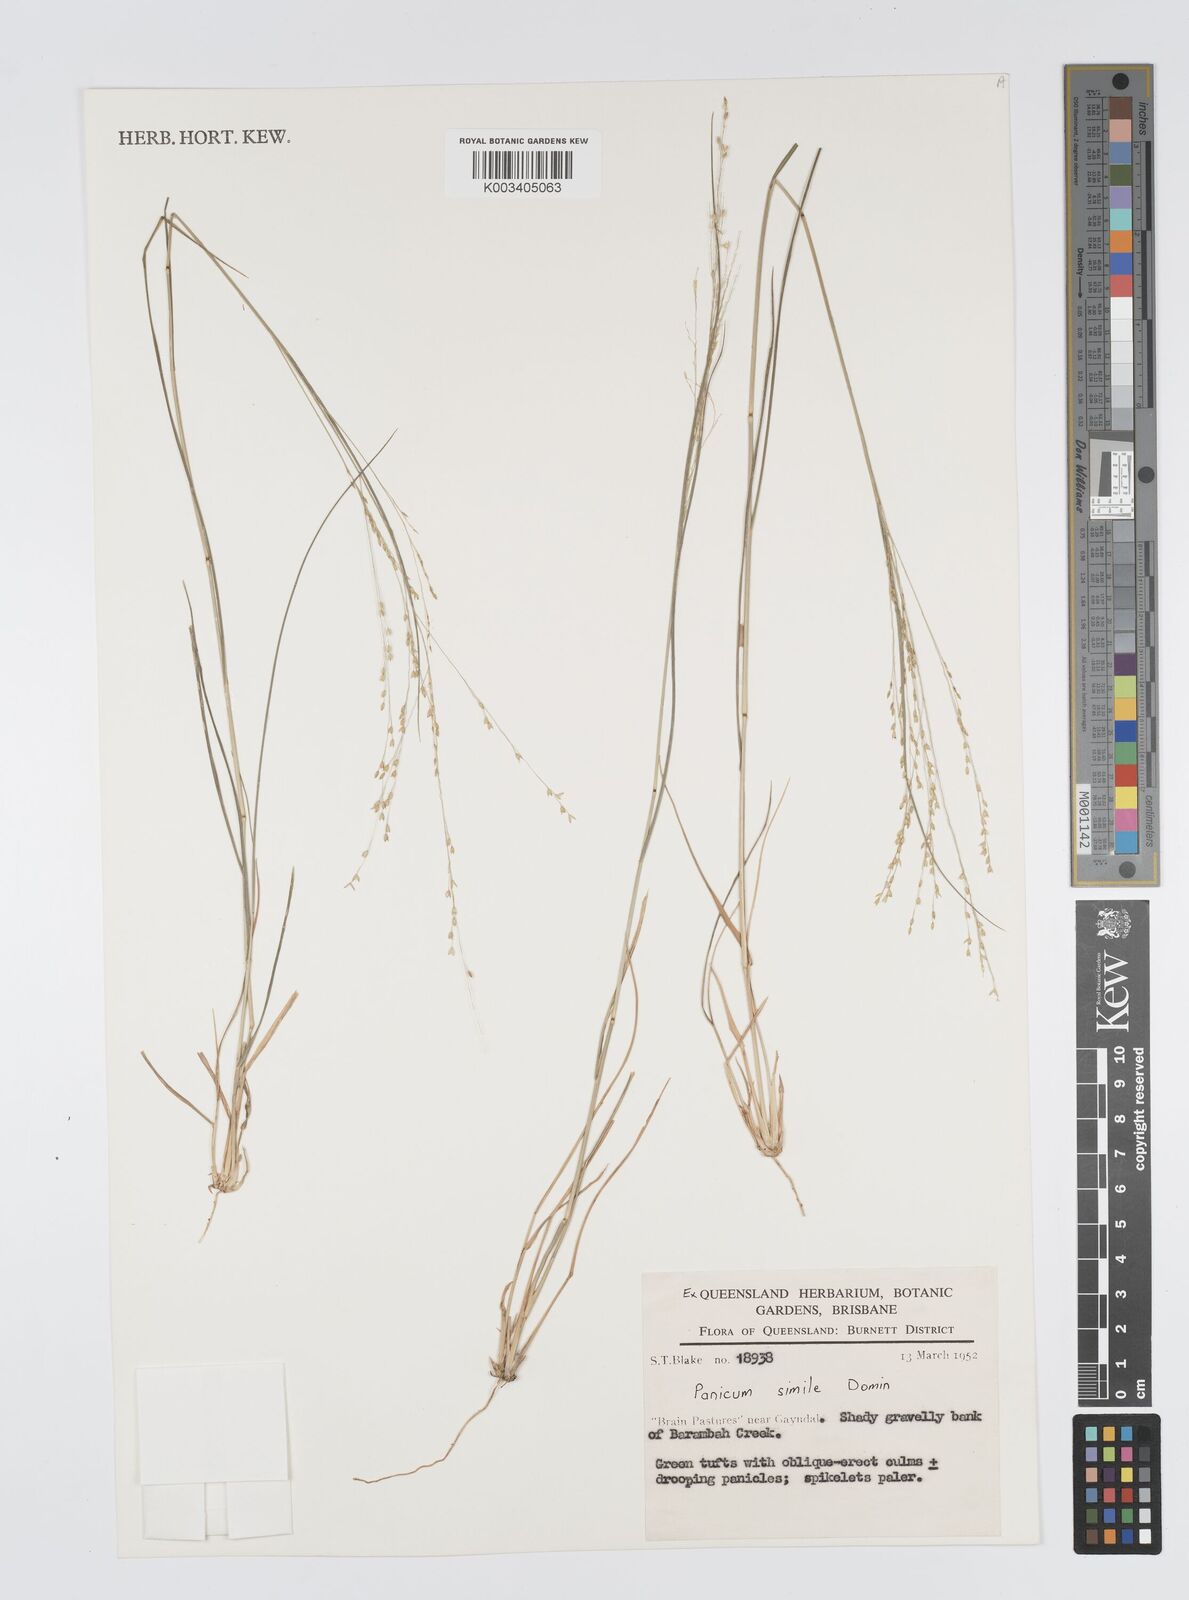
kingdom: Plantae
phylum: Tracheophyta
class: Liliopsida
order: Poales
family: Poaceae
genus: Panicum
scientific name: Panicum simile
